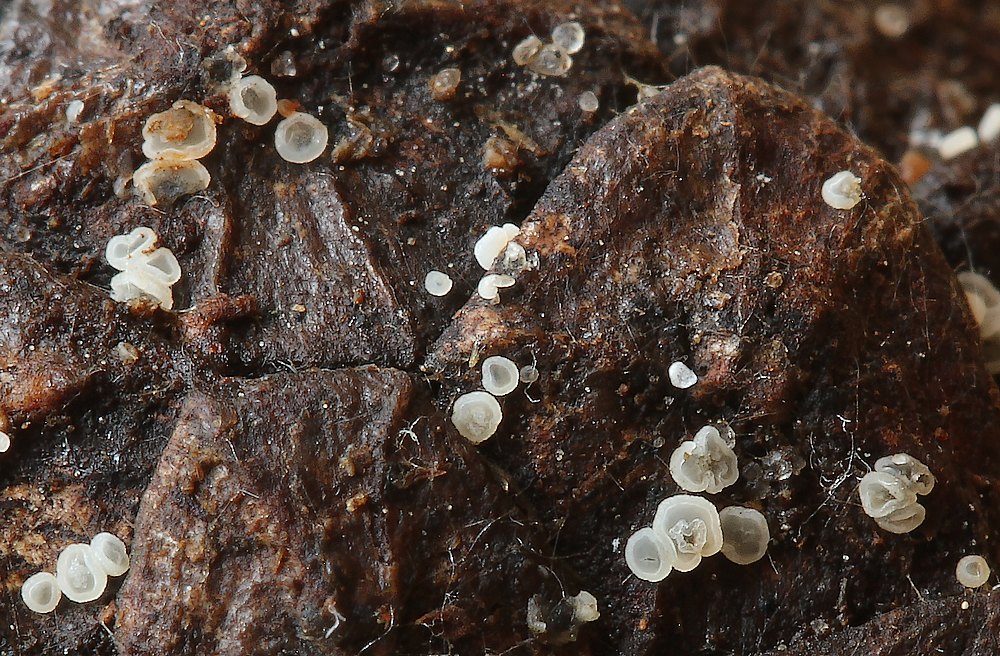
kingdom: Fungi
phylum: Ascomycota
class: Leotiomycetes
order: Helotiales
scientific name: Helotiales
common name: stilkskiveordenen
